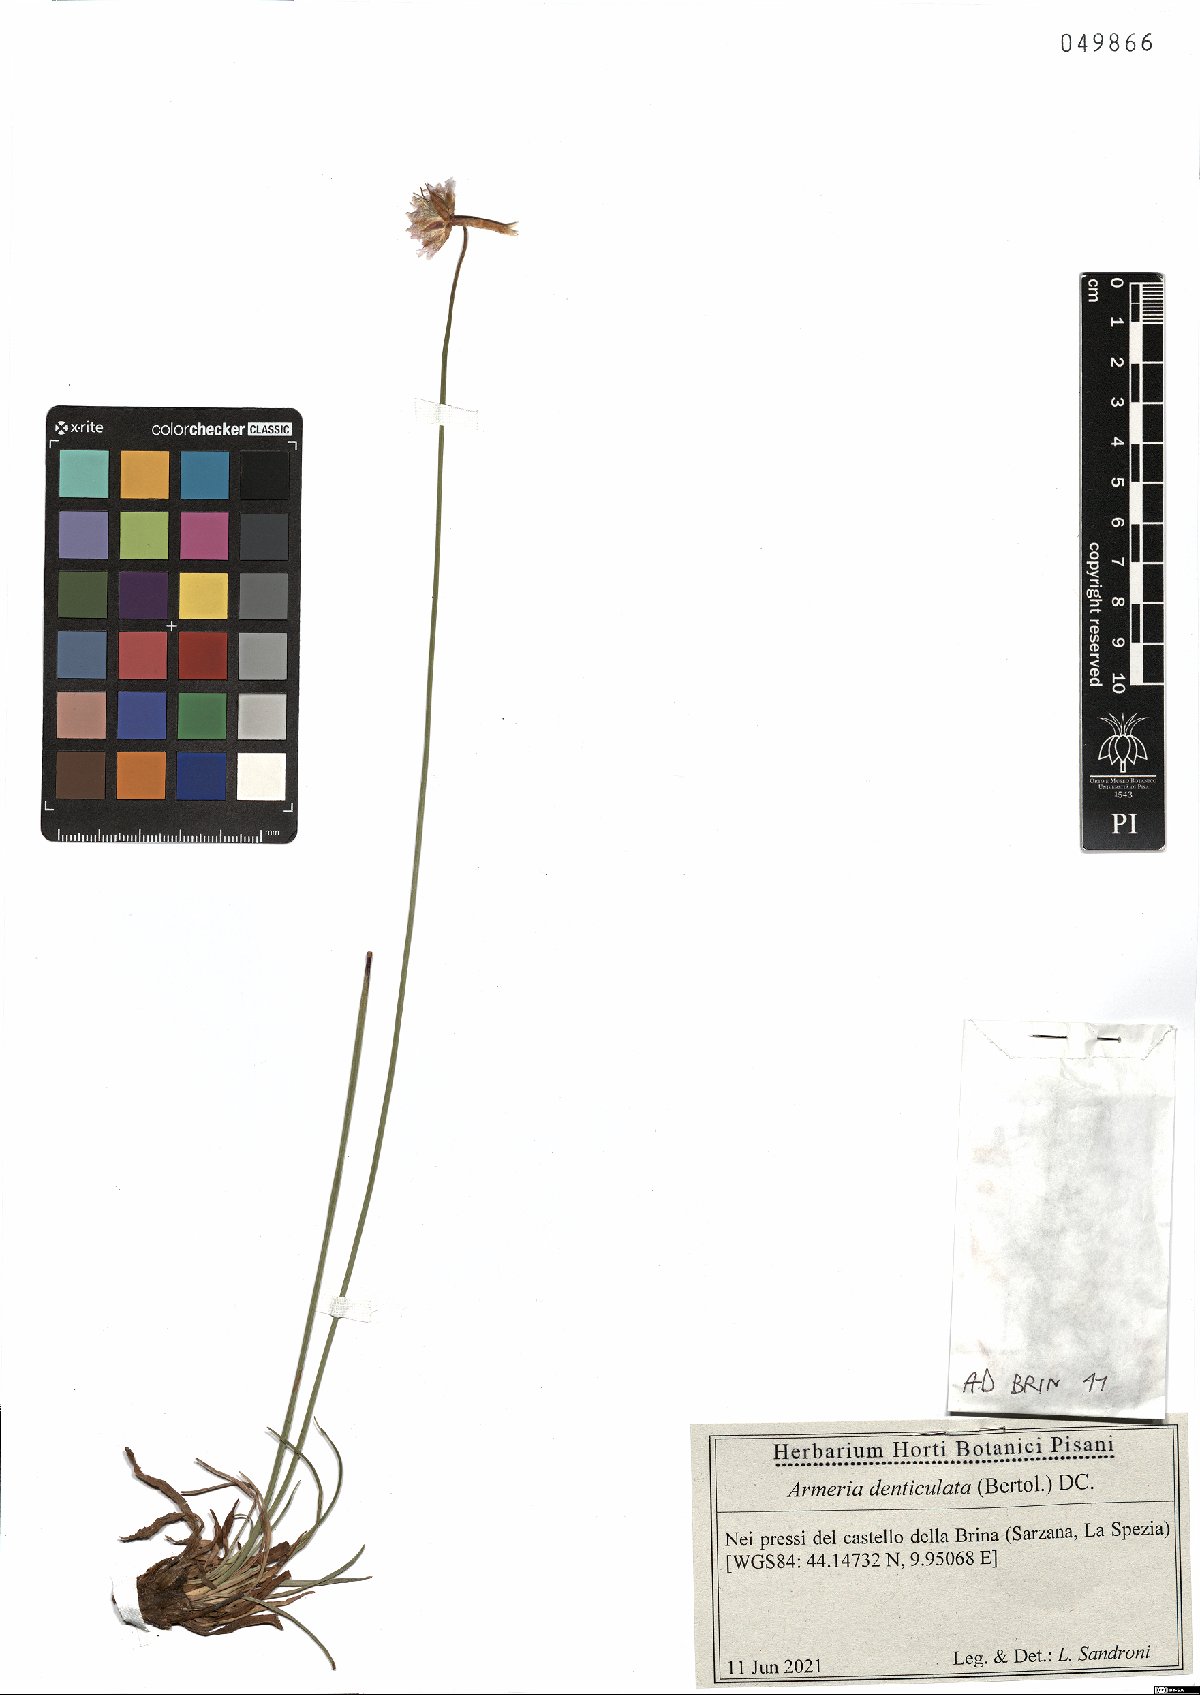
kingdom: Plantae
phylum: Tracheophyta
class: Magnoliopsida
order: Caryophyllales
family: Plumbaginaceae
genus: Armeria
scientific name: Armeria denticulata
